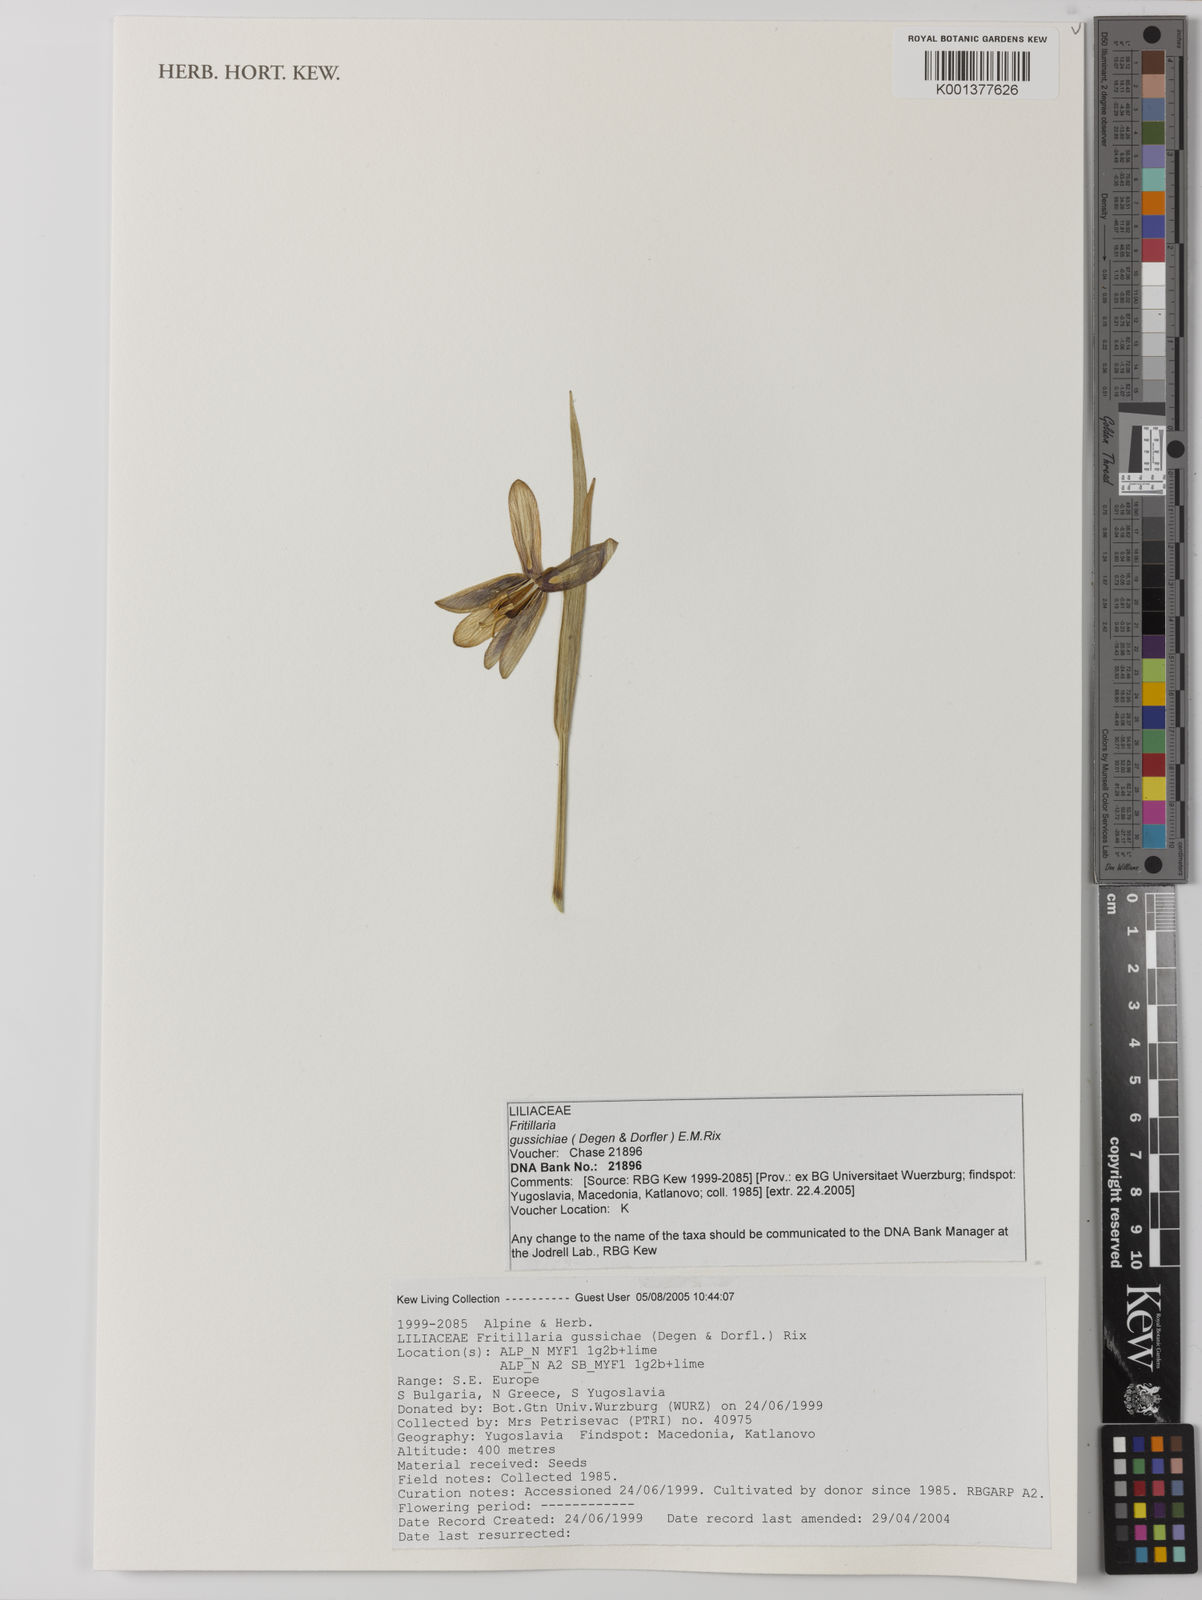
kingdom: Plantae
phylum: Tracheophyta
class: Liliopsida
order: Liliales
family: Liliaceae
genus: Fritillaria
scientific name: Fritillaria gussichiae
